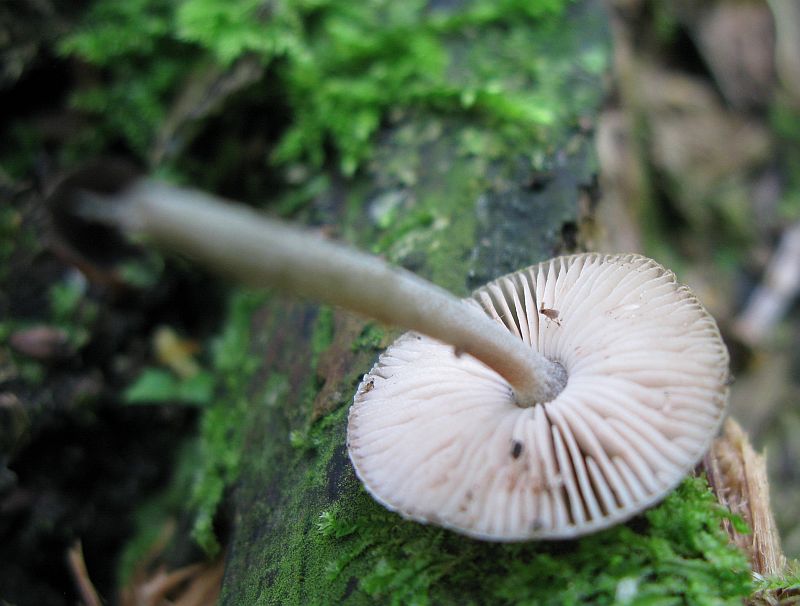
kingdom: Fungi
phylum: Basidiomycota
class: Agaricomycetes
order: Agaricales
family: Pluteaceae
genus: Pluteus
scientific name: Pluteus
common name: gråstokket skærmhat
